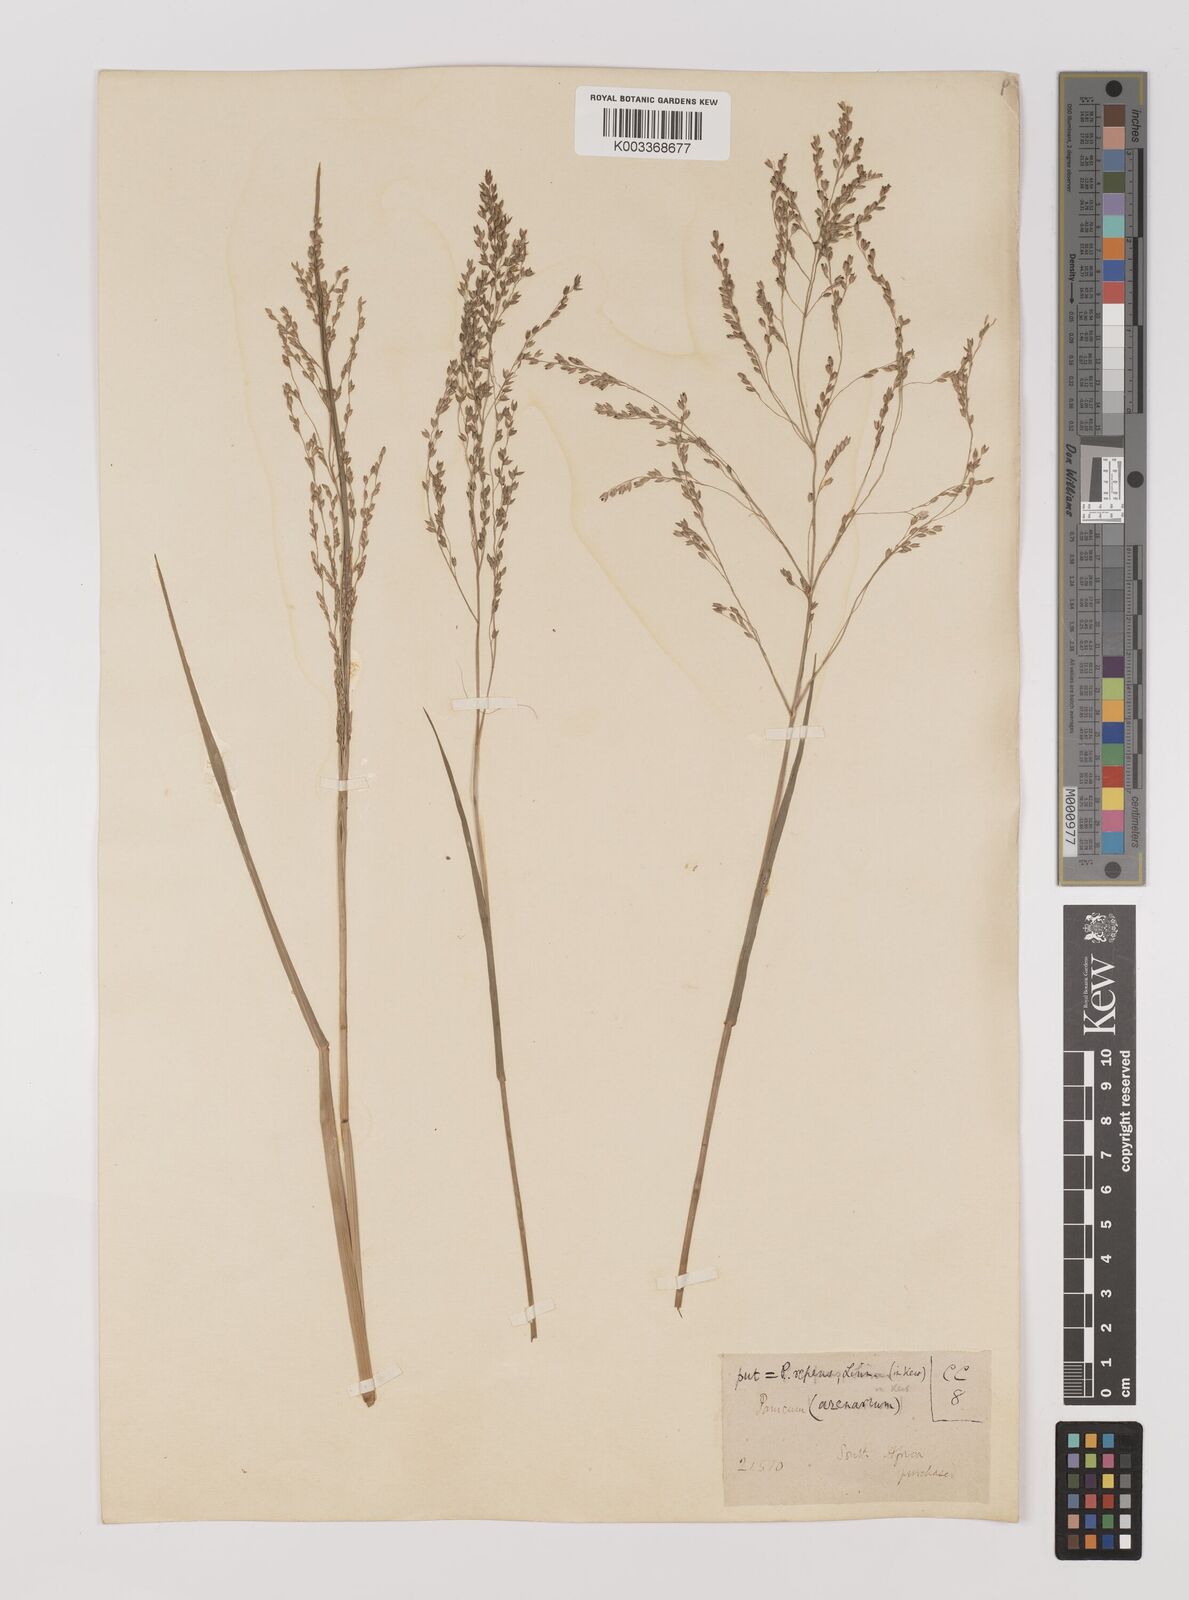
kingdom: Plantae
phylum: Tracheophyta
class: Liliopsida
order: Poales
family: Poaceae
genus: Panicum
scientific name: Panicum repens
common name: Torpedo grass
